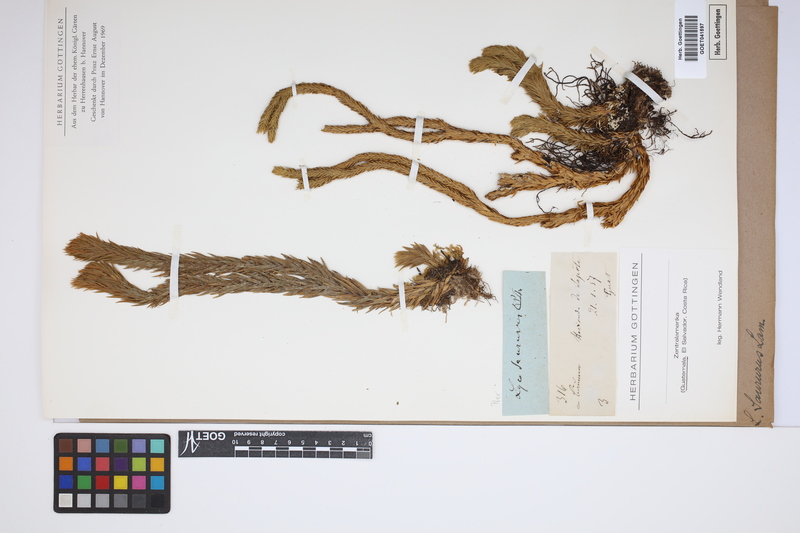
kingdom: Plantae
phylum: Tracheophyta
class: Lycopodiopsida
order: Lycopodiales
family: Lycopodiaceae
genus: Phlegmariurus
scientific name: Phlegmariurus saururus
